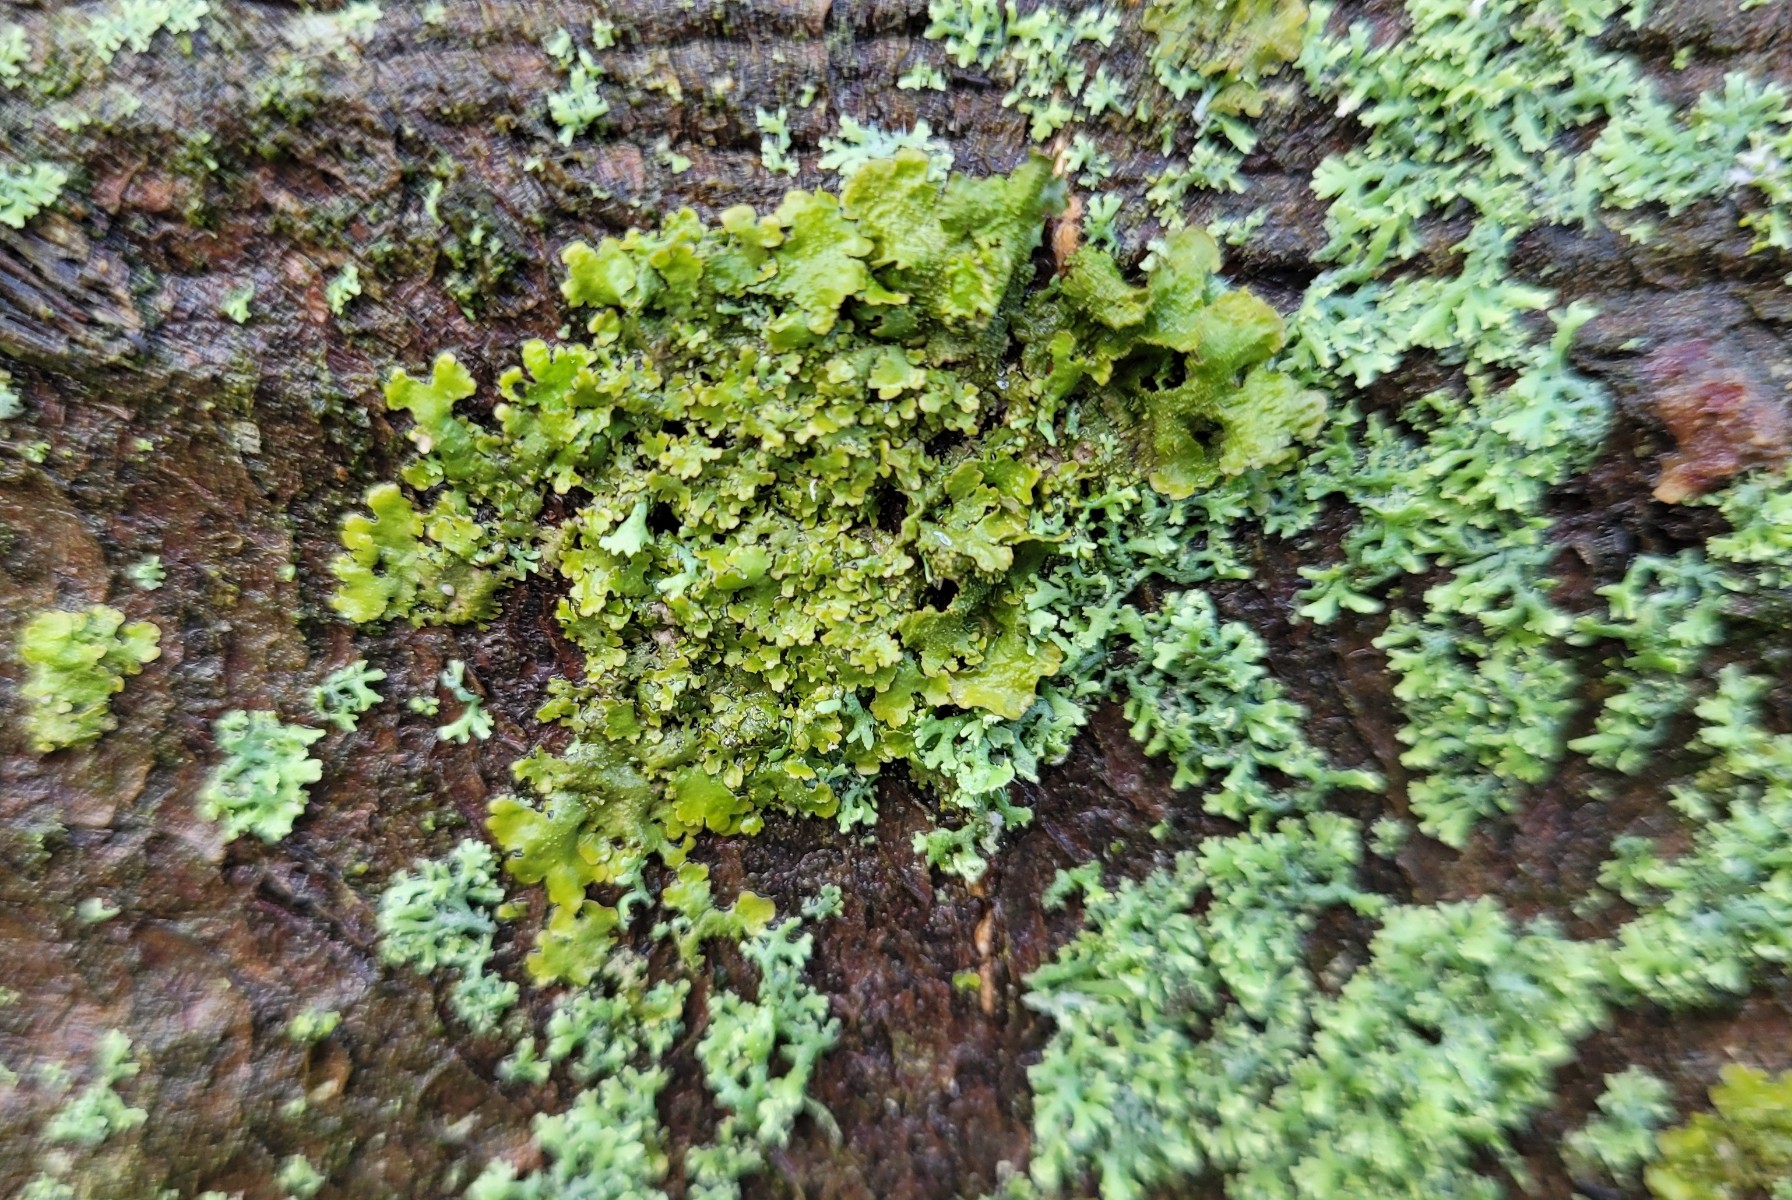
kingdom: Fungi
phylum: Ascomycota
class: Lecanoromycetes
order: Lecanorales
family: Parmeliaceae
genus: Melanohalea
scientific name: Melanohalea laciniatula
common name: småfliget skållav
